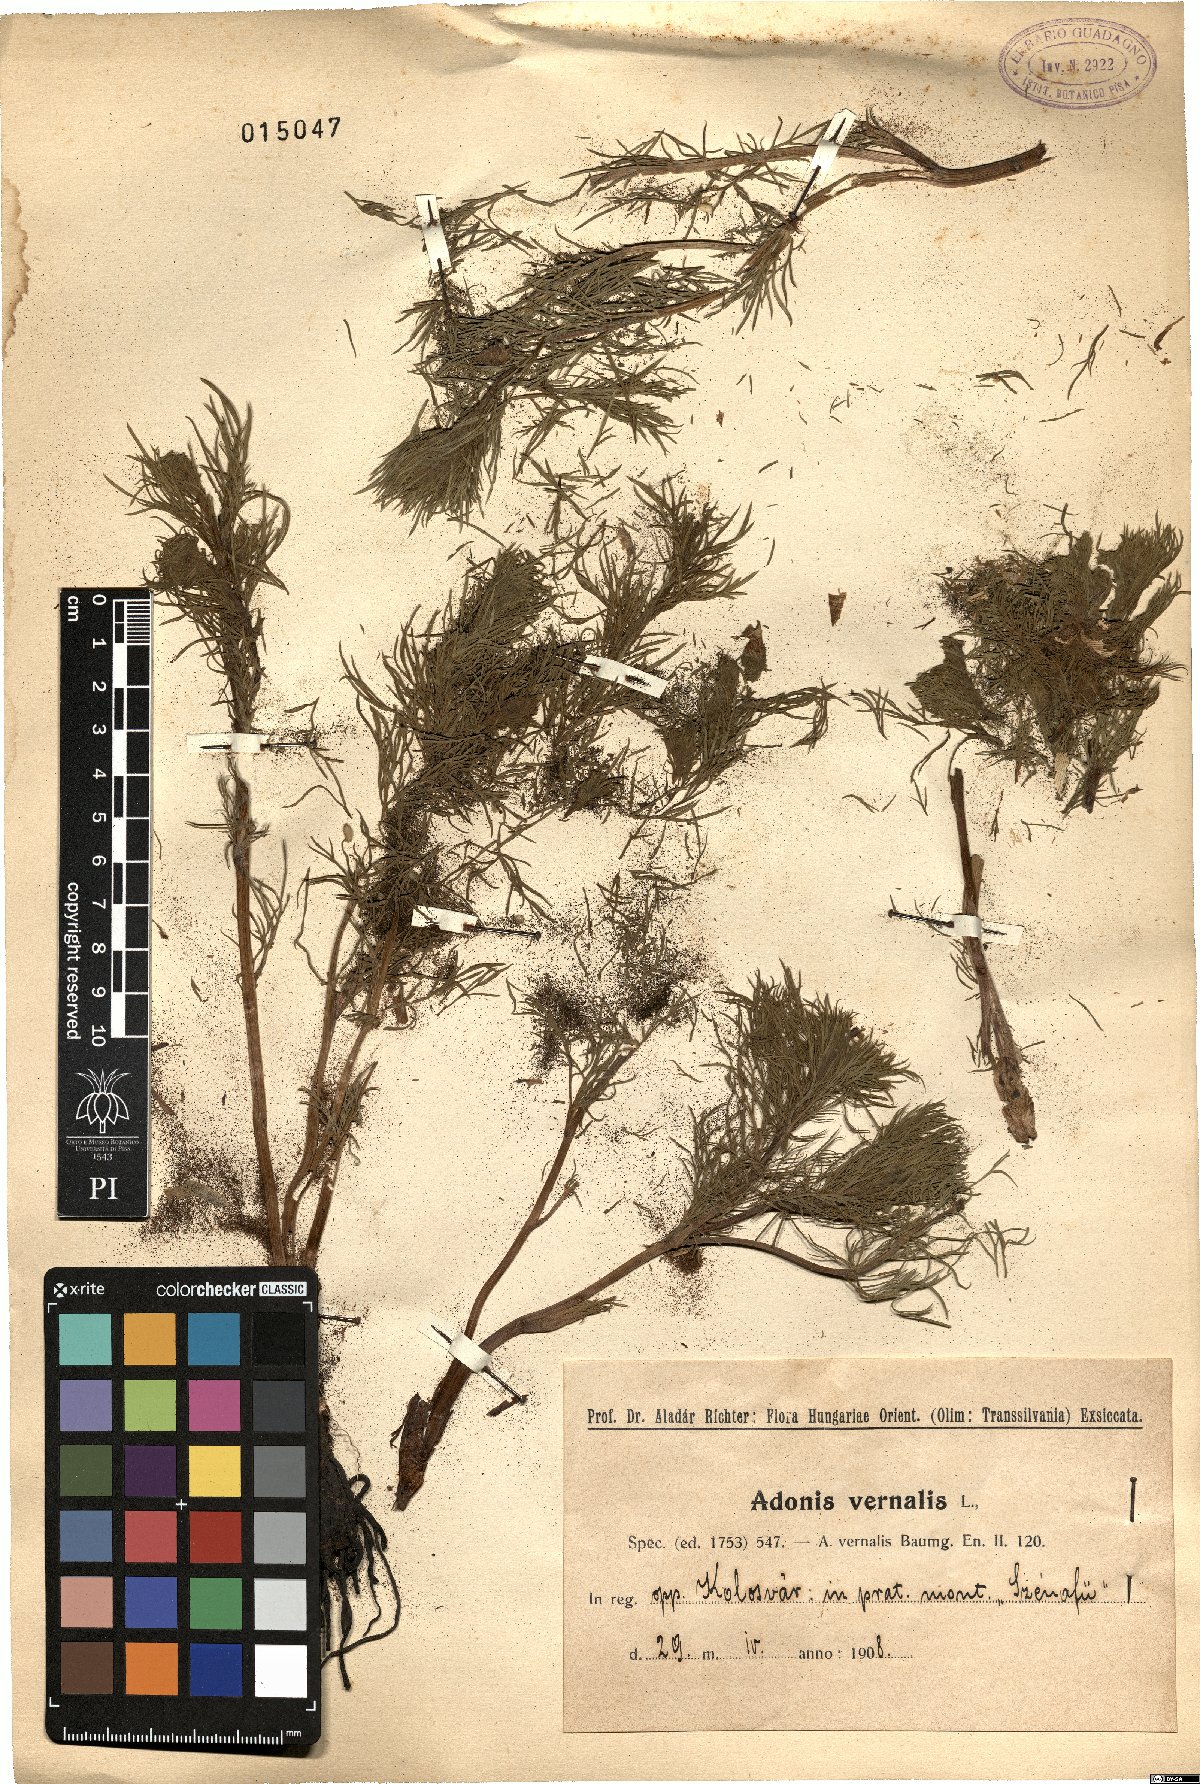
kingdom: Plantae
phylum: Tracheophyta
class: Magnoliopsida
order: Ranunculales
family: Ranunculaceae
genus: Adonis
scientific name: Adonis vernalis
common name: Yellow pheasants-eye
